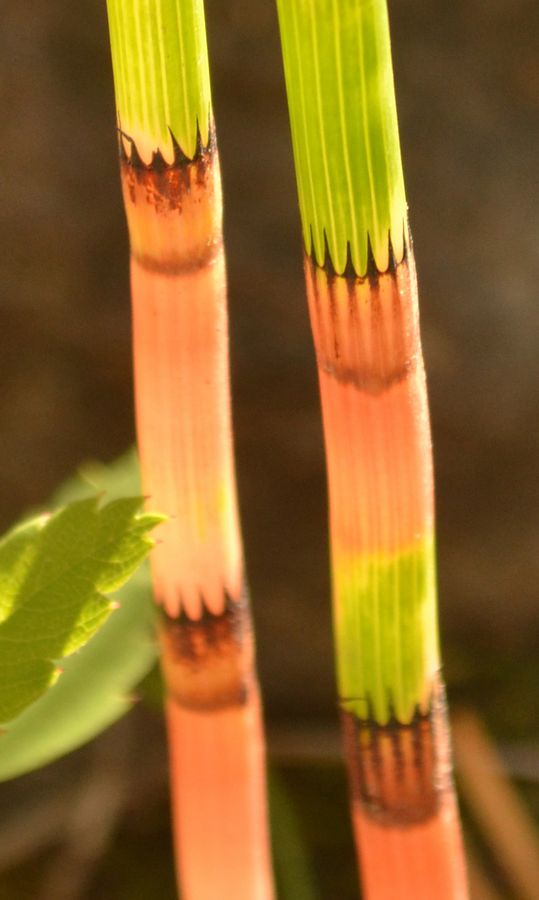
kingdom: Plantae
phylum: Tracheophyta
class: Polypodiopsida
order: Equisetales
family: Equisetaceae
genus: Equisetum
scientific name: Equisetum fluviatile
